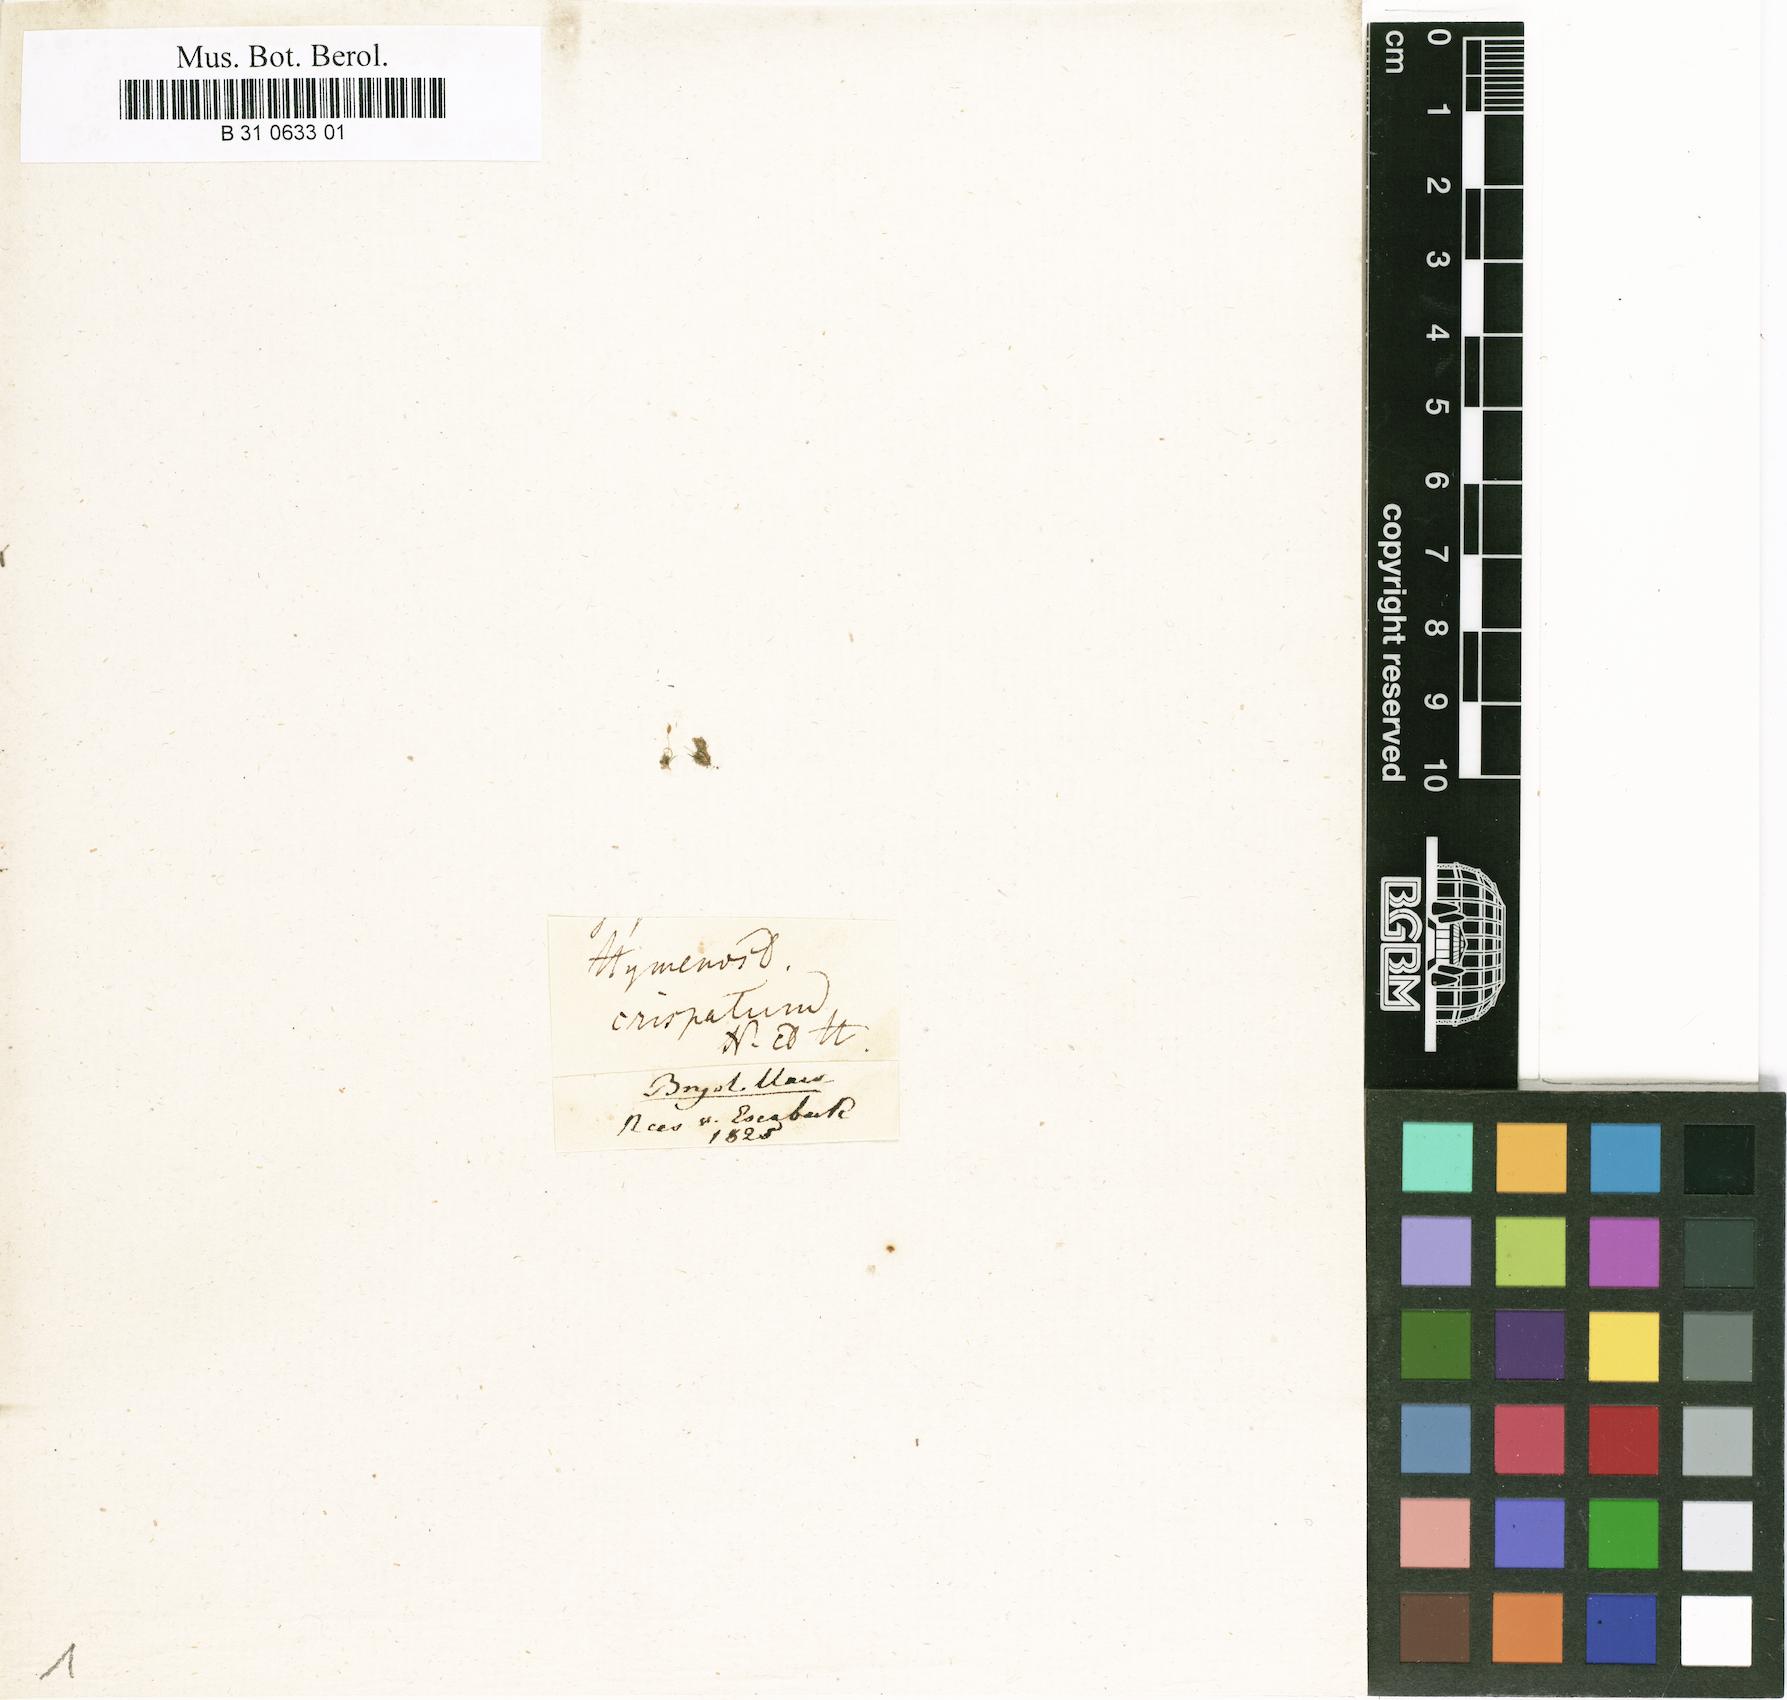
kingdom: Plantae
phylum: Bryophyta
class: Bryopsida
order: Pottiales
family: Pottiaceae
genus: Weissia
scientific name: Weissia controversa
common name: Green-tufted stubble moss
